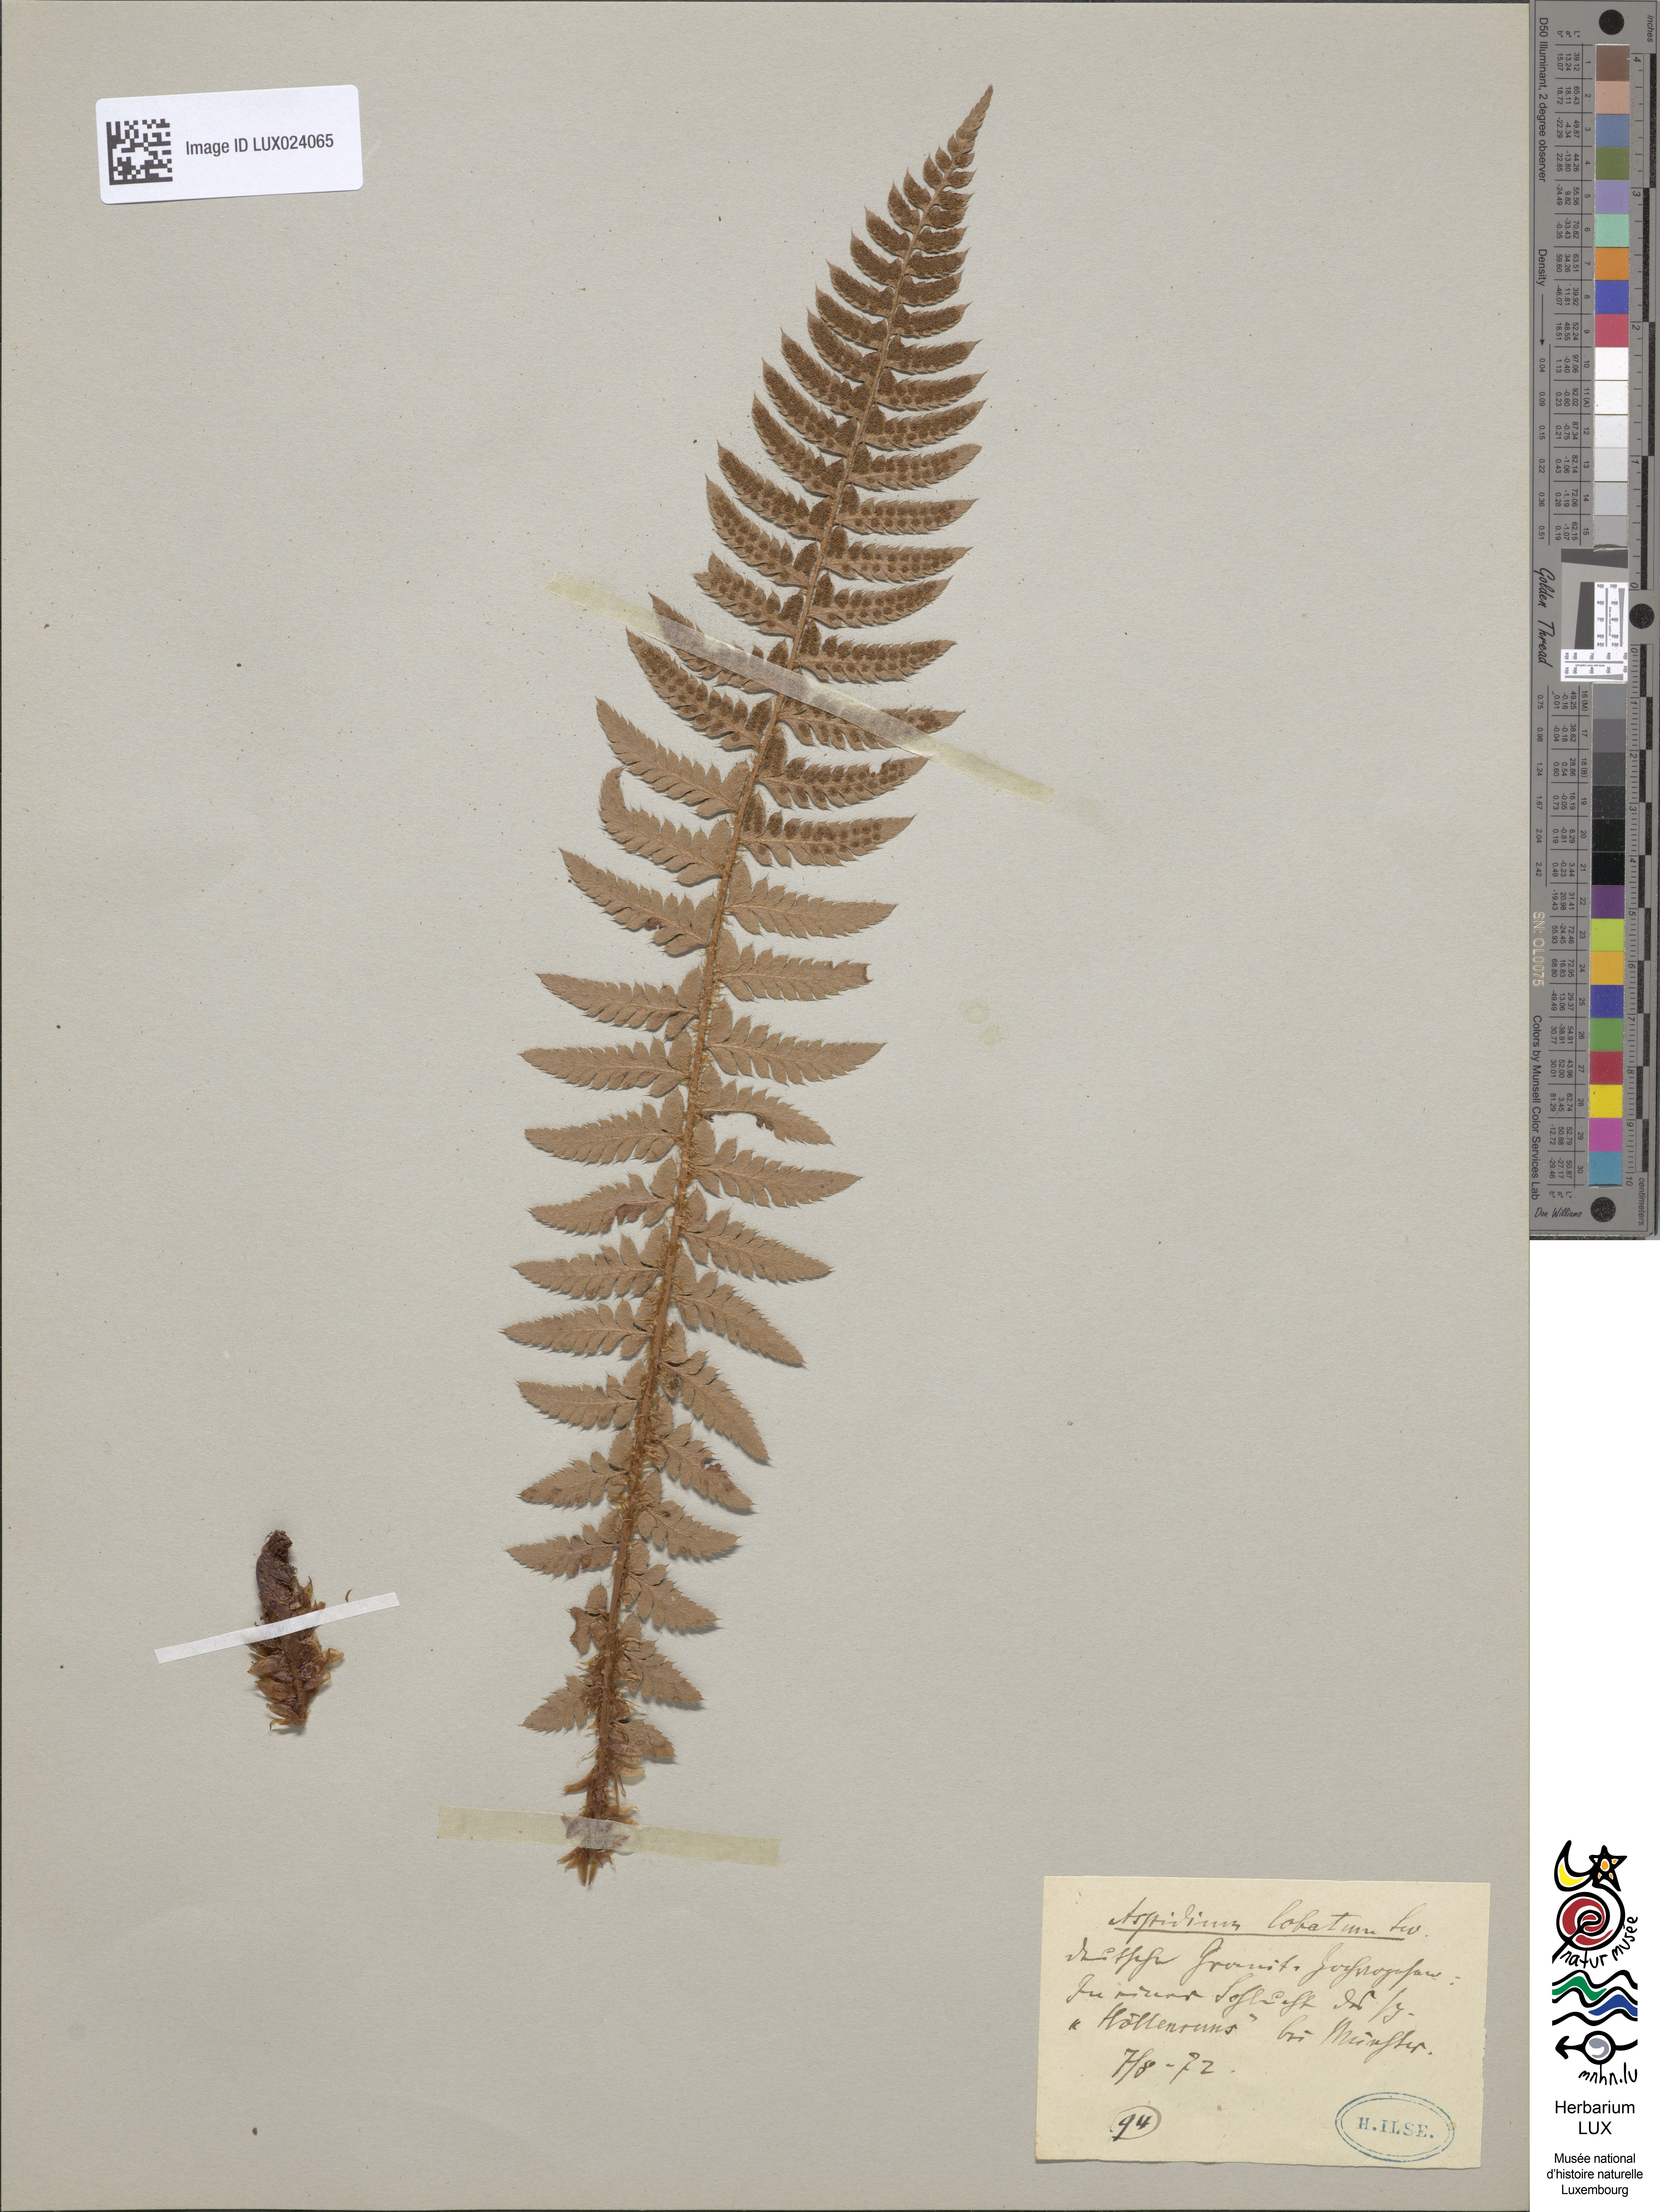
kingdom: Plantae
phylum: Tracheophyta
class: Polypodiopsida
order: Polypodiales
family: Dryopteridaceae
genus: Polystichum
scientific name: Polystichum aculeatum
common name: Hard shield-fern
